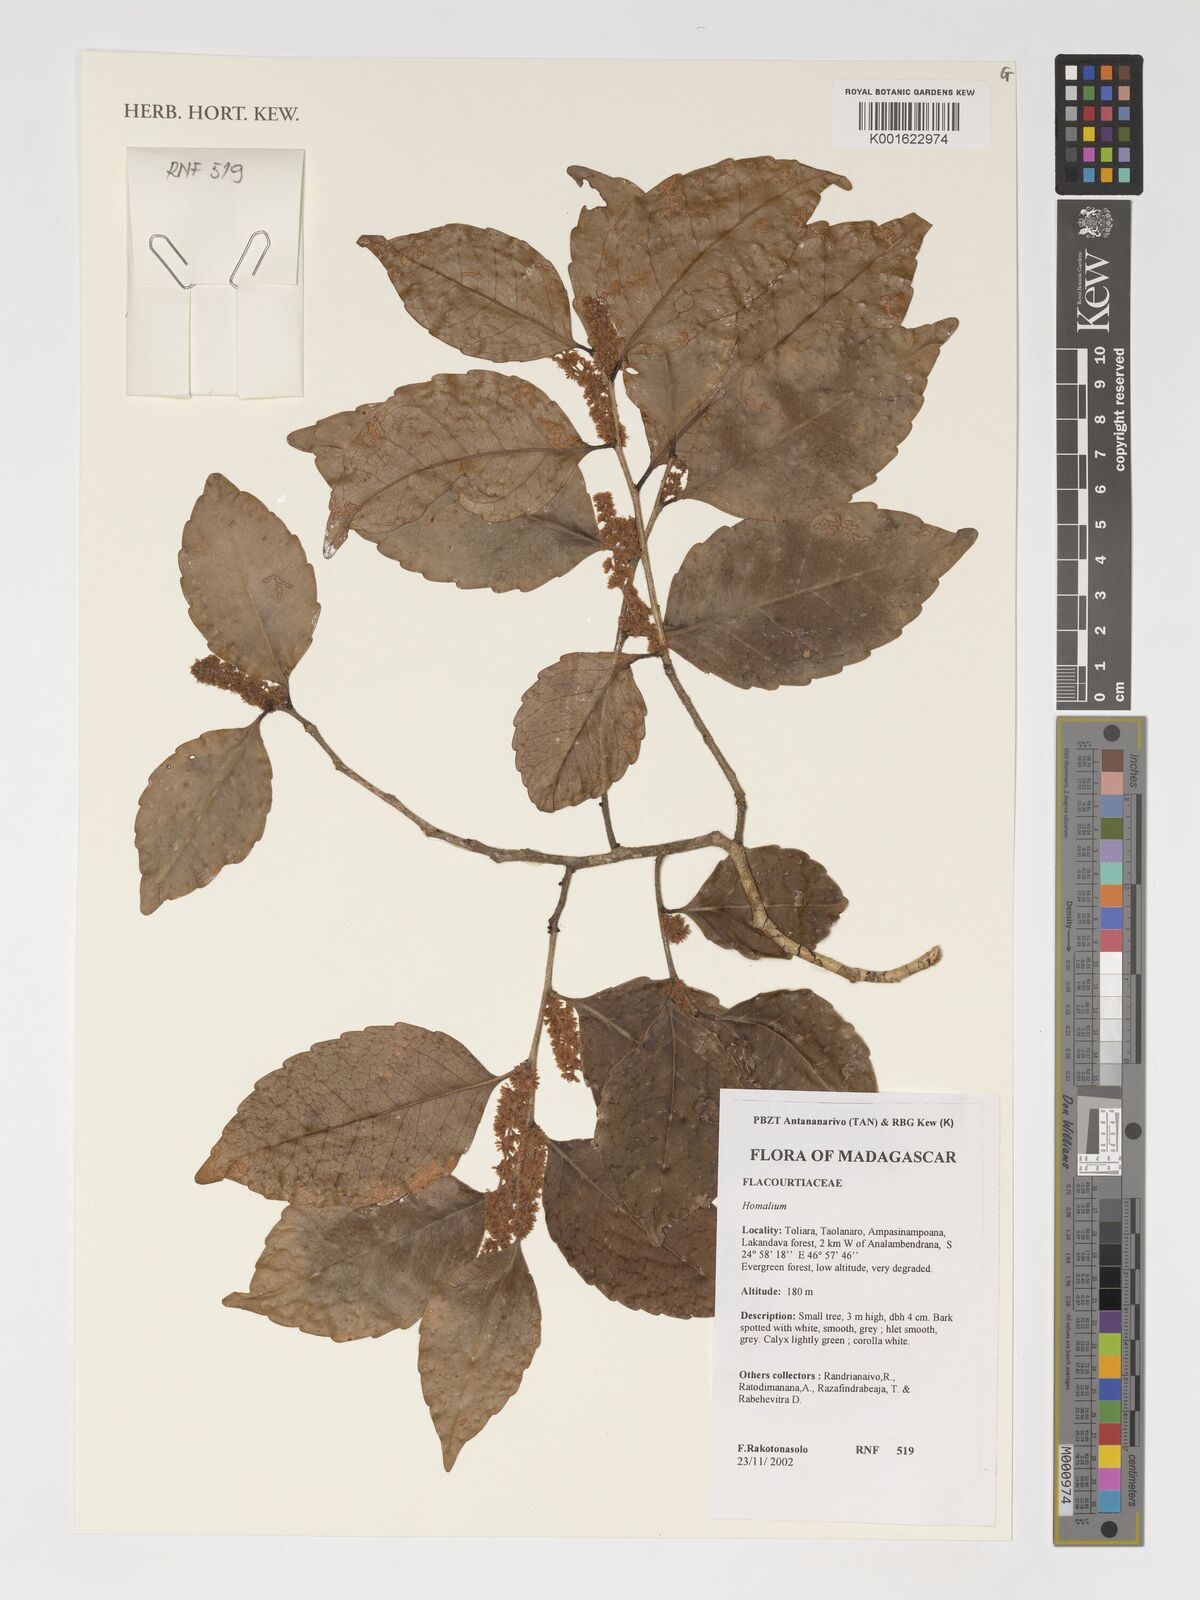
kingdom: Plantae
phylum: Tracheophyta
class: Magnoliopsida
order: Malpighiales
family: Salicaceae
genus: Homalium
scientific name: Homalium
